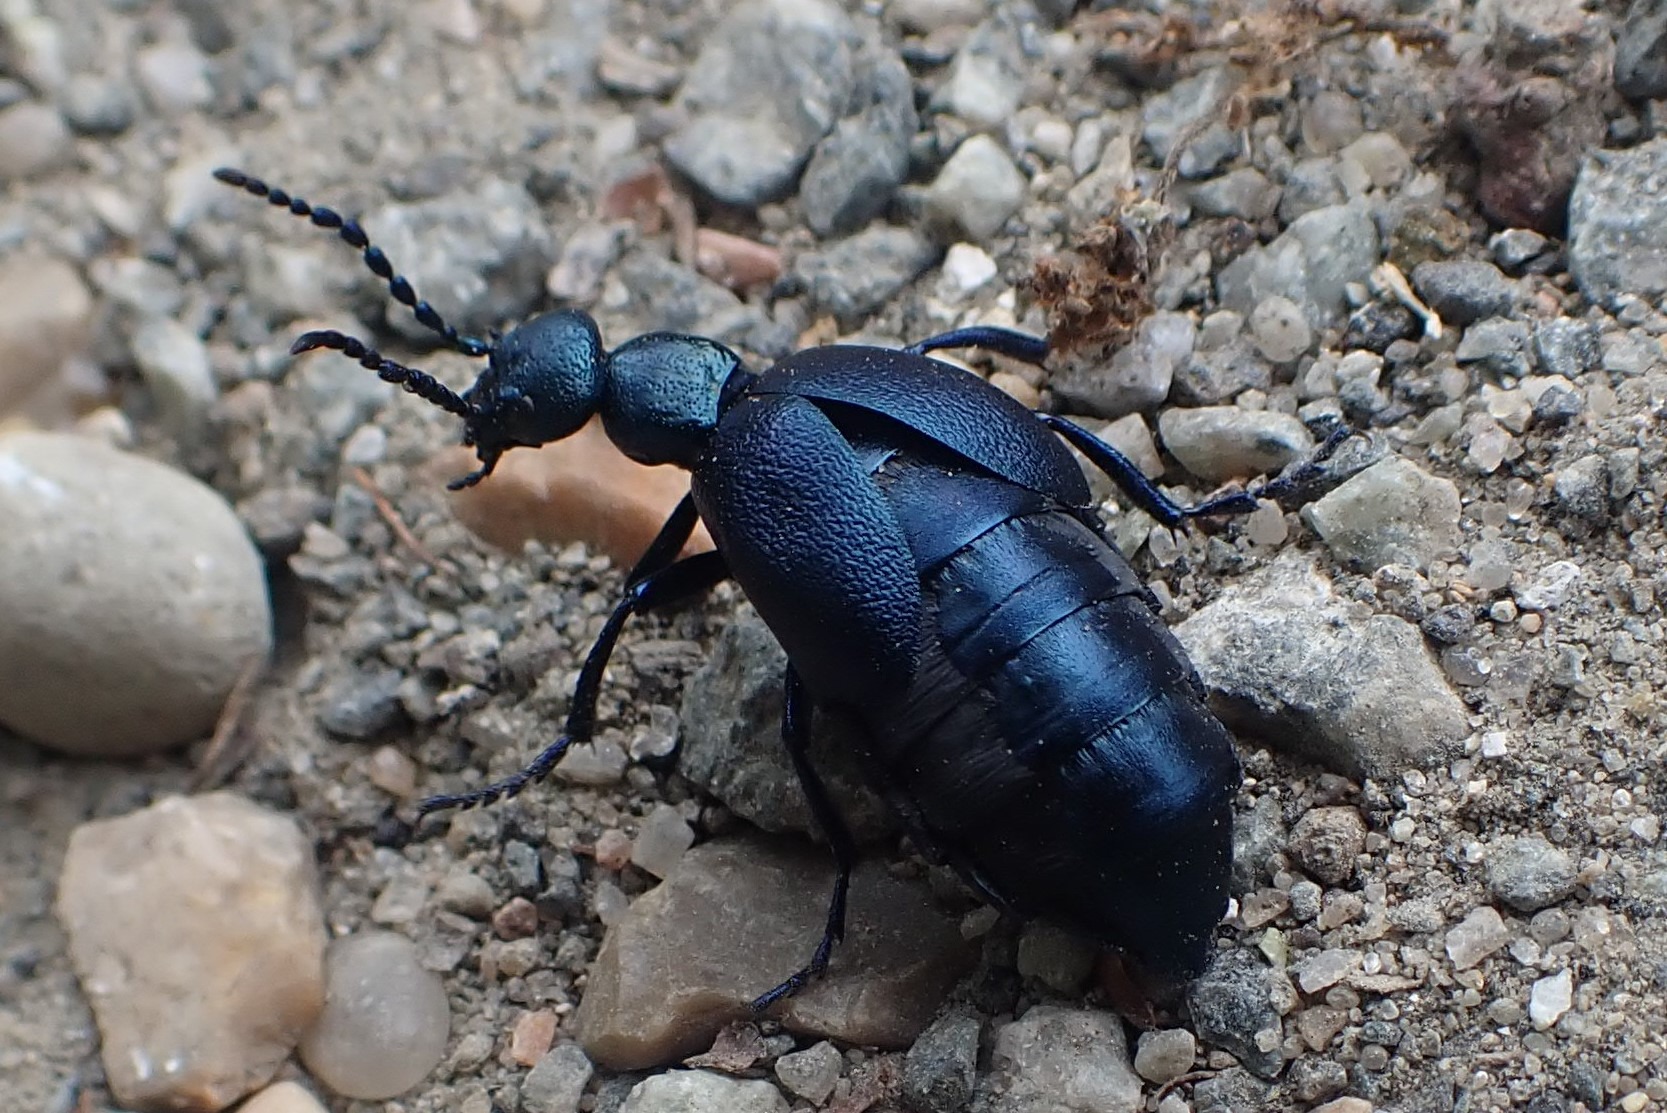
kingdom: Animalia
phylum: Arthropoda
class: Insecta
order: Coleoptera
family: Meloidae
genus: Meloe
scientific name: Meloe violaceus
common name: Blå oliebille
